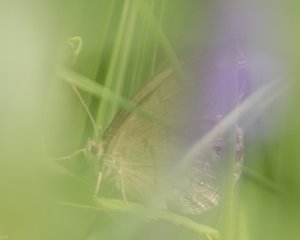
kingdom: Animalia
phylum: Arthropoda
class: Insecta
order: Lepidoptera
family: Nymphalidae
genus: Lethe
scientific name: Lethe eurydice
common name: Eyed Brown
